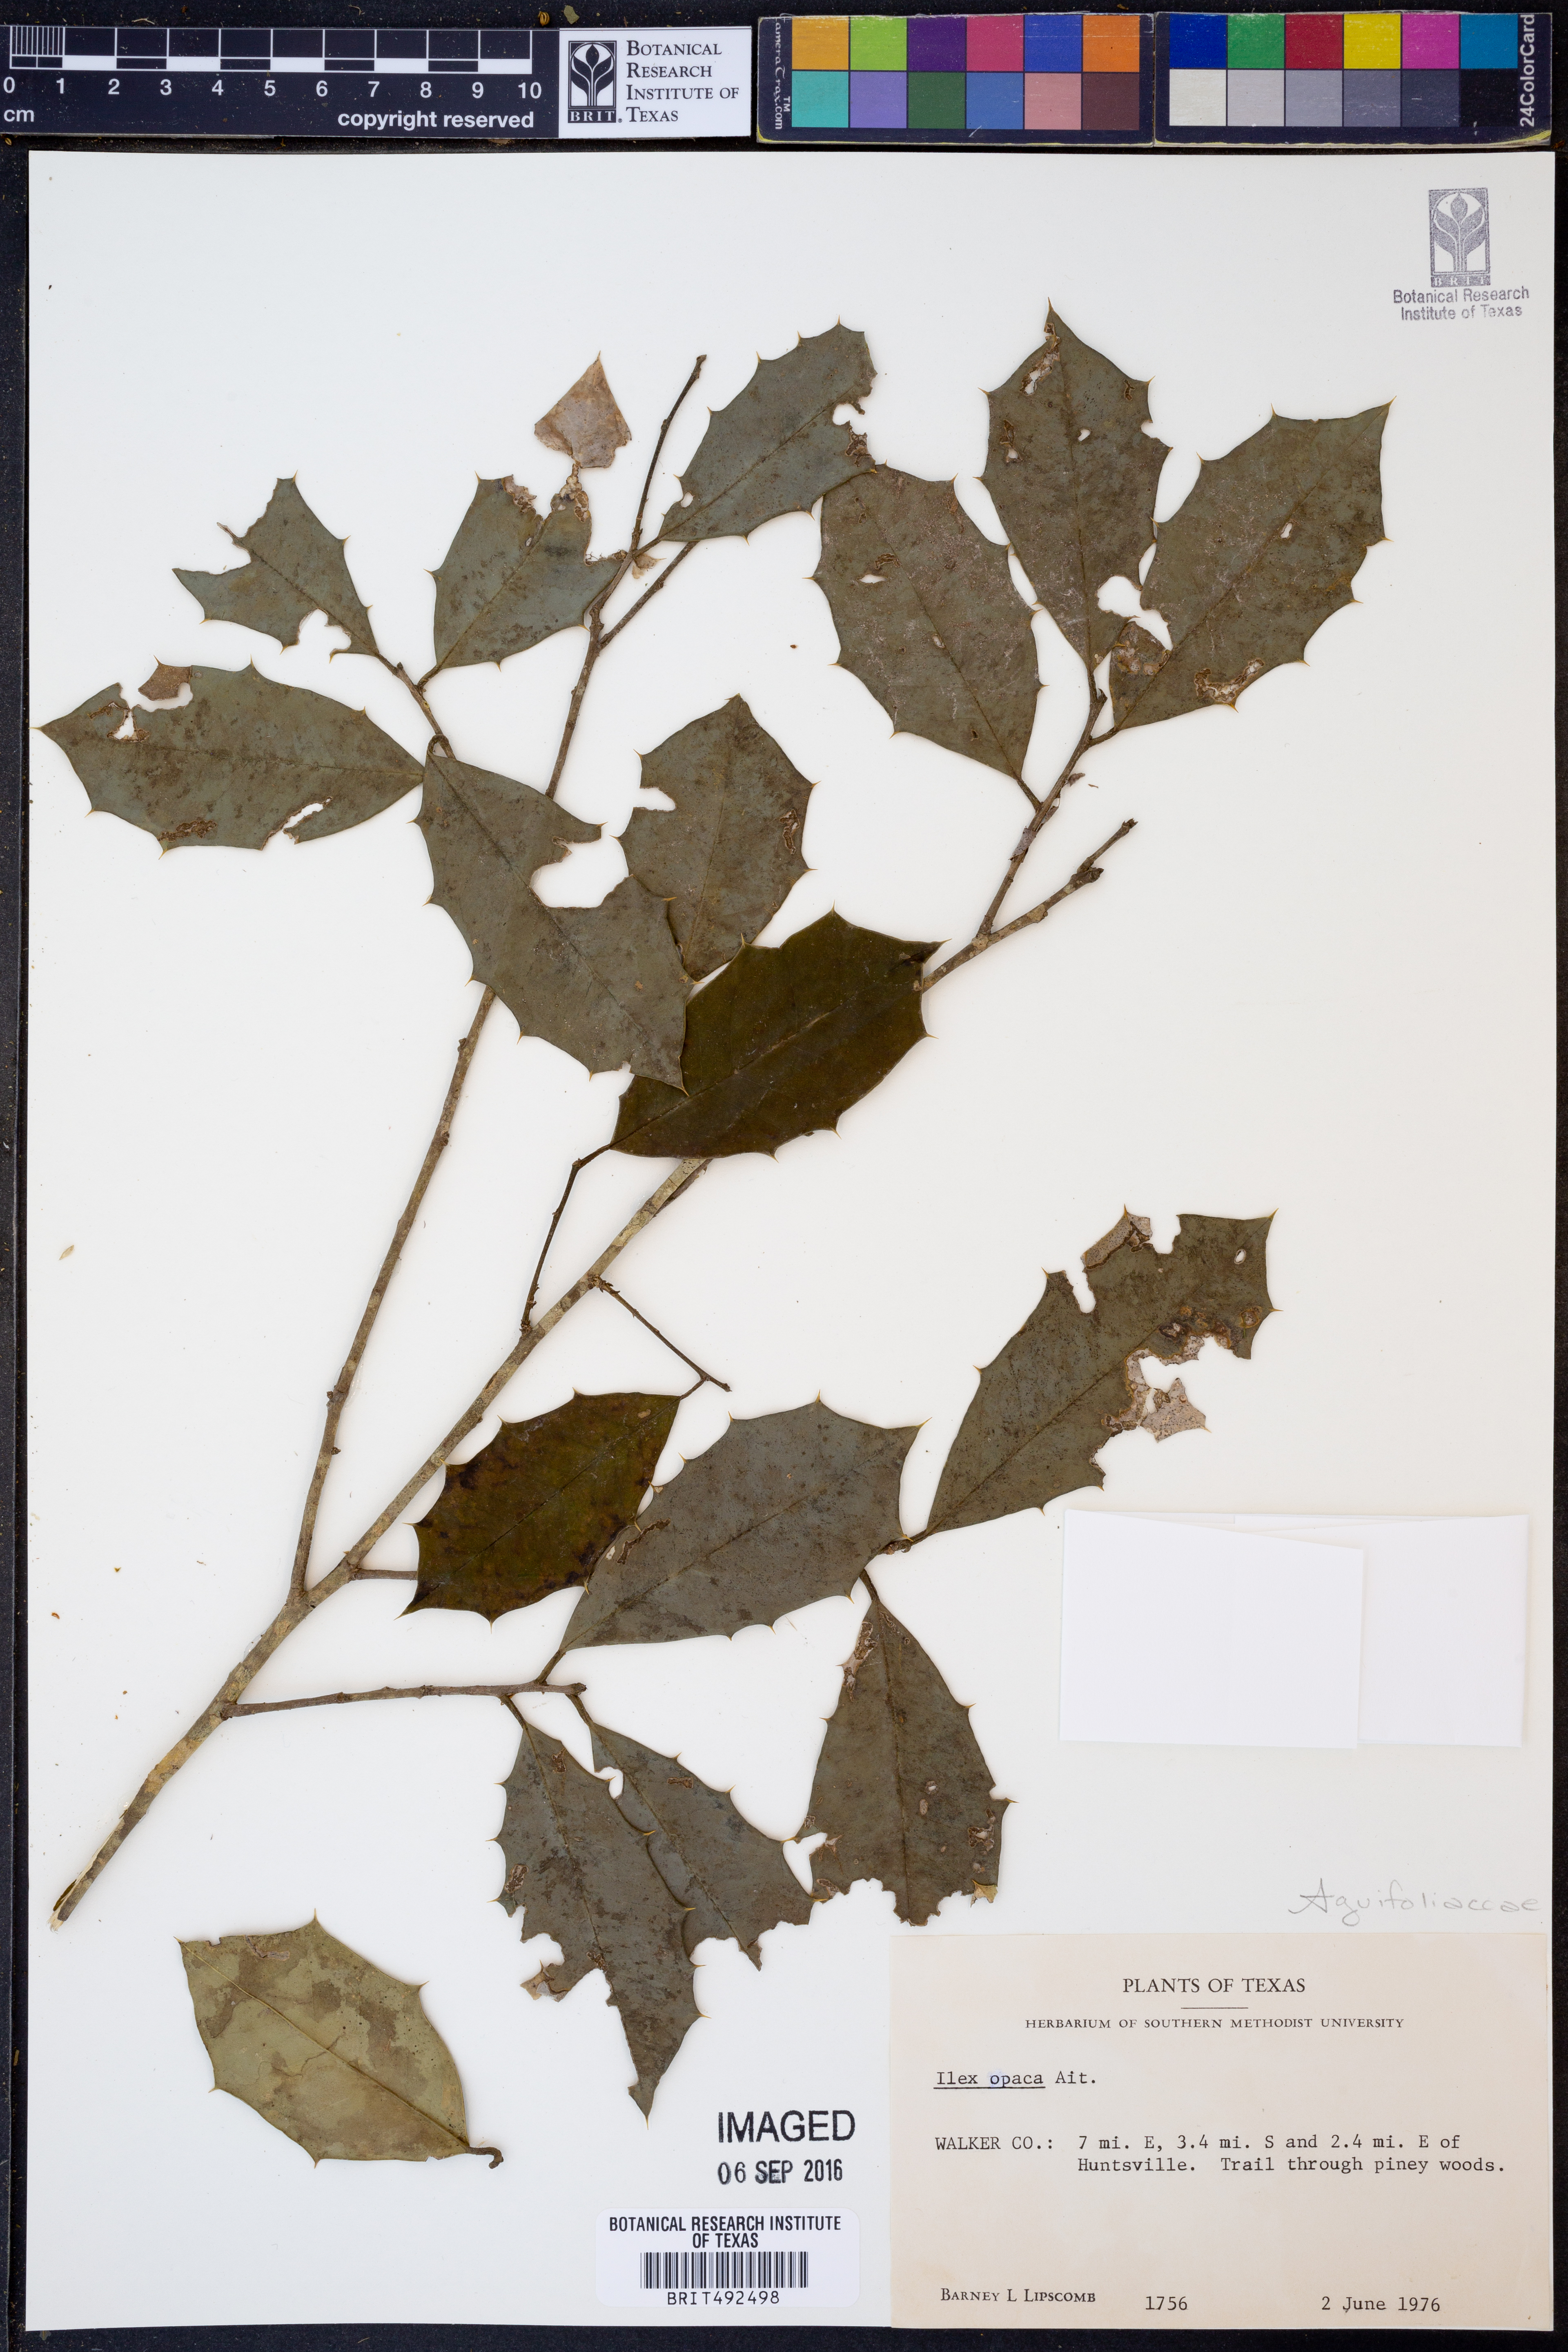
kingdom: Plantae
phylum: Tracheophyta
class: Magnoliopsida
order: Aquifoliales
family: Aquifoliaceae
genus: Ilex
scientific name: Ilex opaca
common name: American holly
